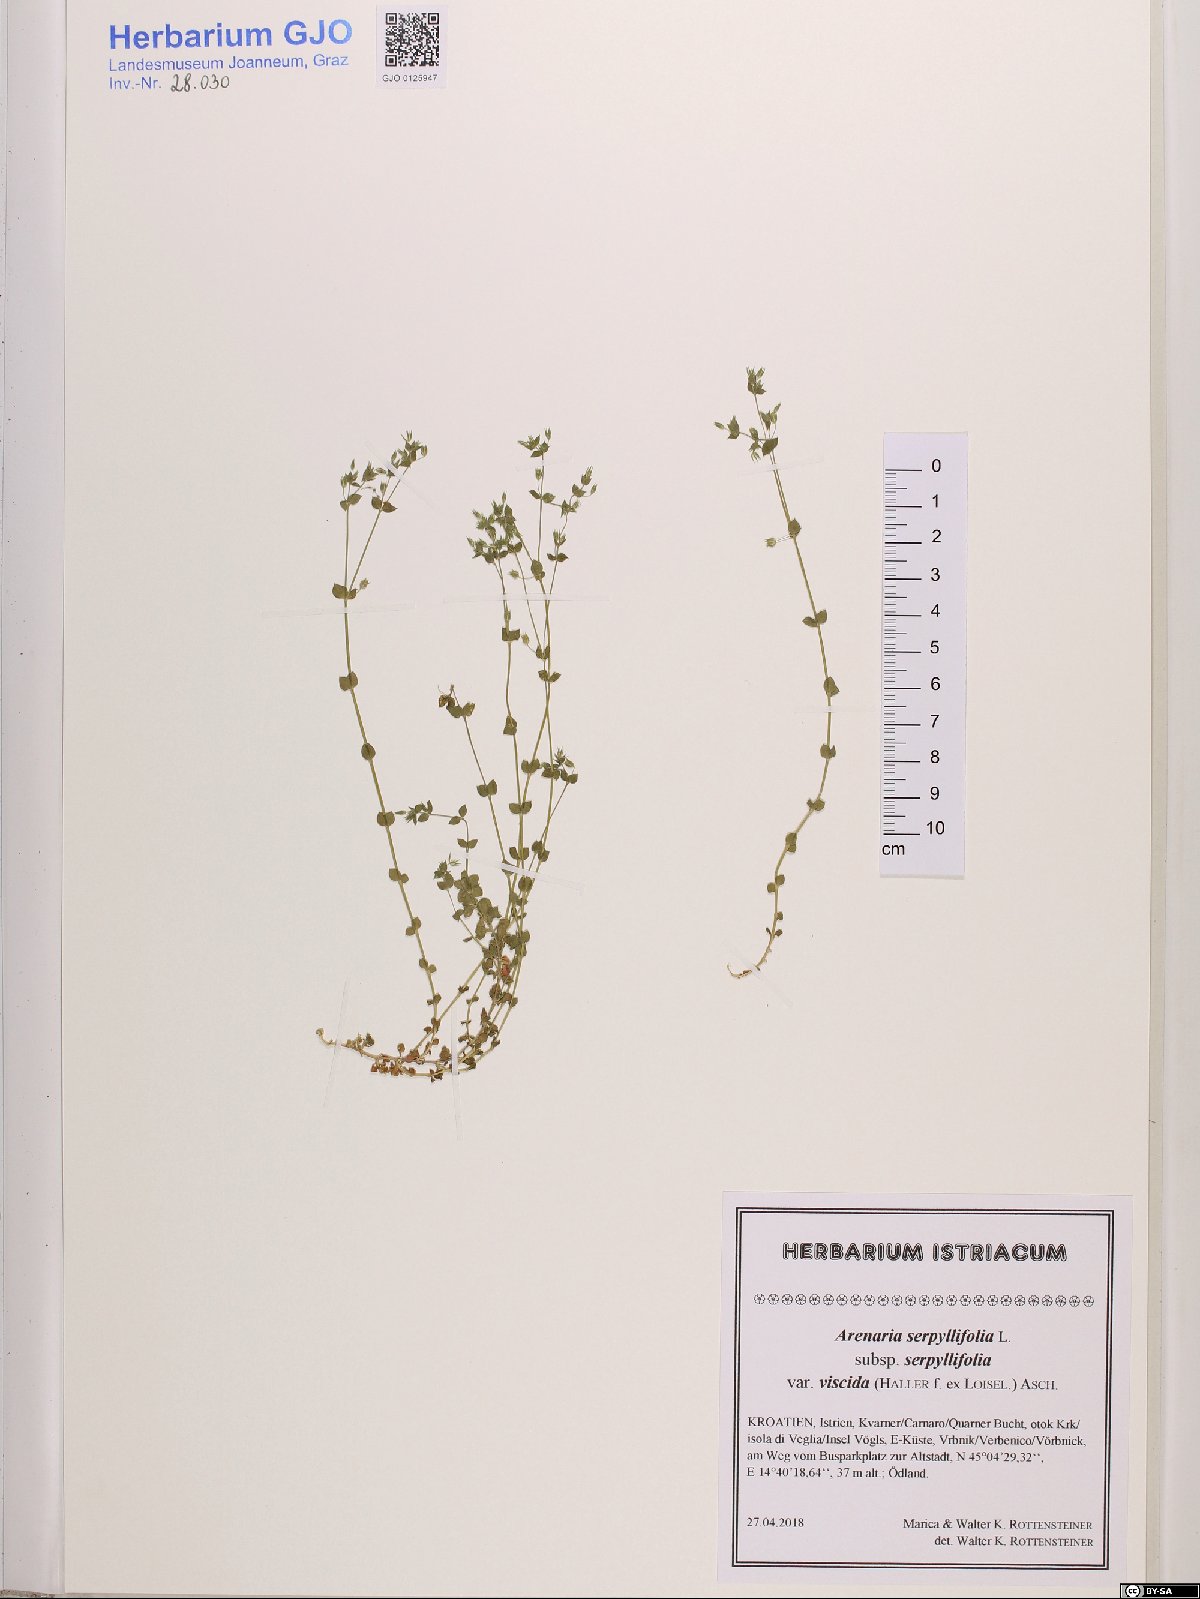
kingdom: Plantae
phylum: Tracheophyta
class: Magnoliopsida
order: Caryophyllales
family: Caryophyllaceae
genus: Arenaria
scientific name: Arenaria serpyllifolia
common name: Thyme-leaved sandwort
